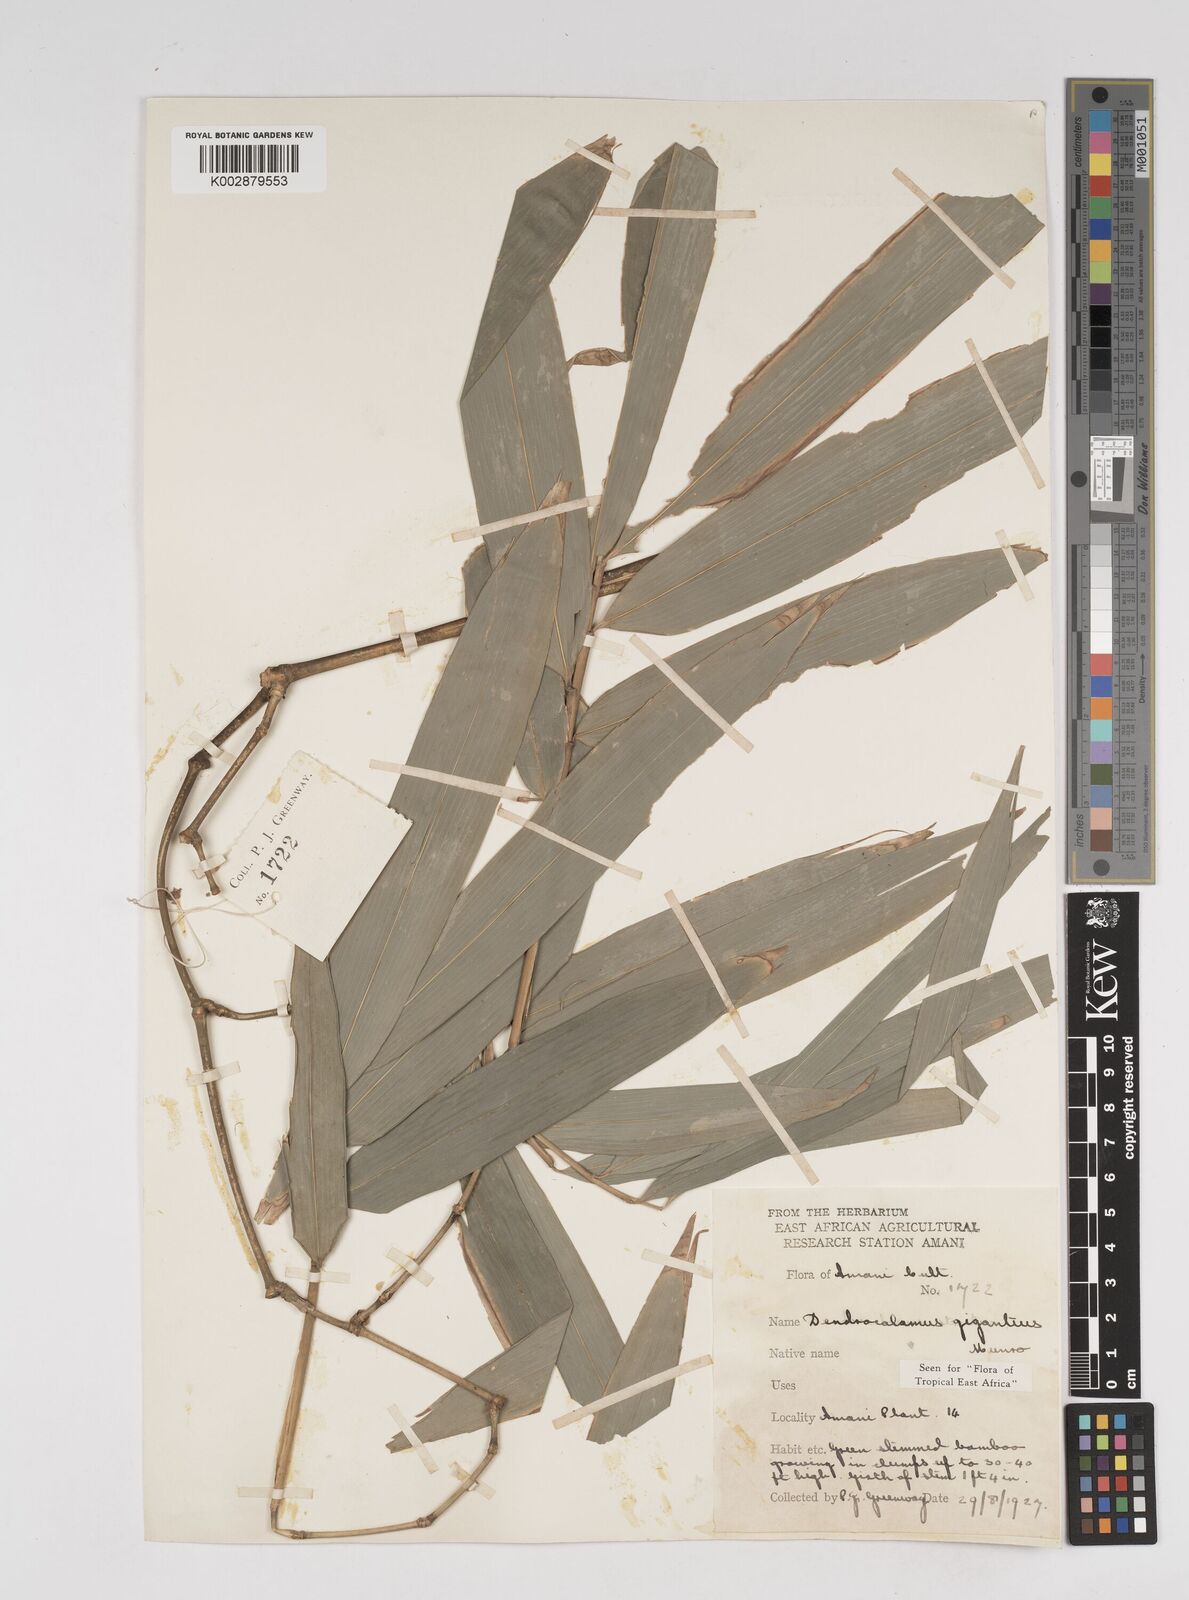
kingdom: Plantae
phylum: Tracheophyta
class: Liliopsida
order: Poales
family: Poaceae
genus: Dendrocalamus
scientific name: Dendrocalamus giganteus
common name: Giant bamboo
